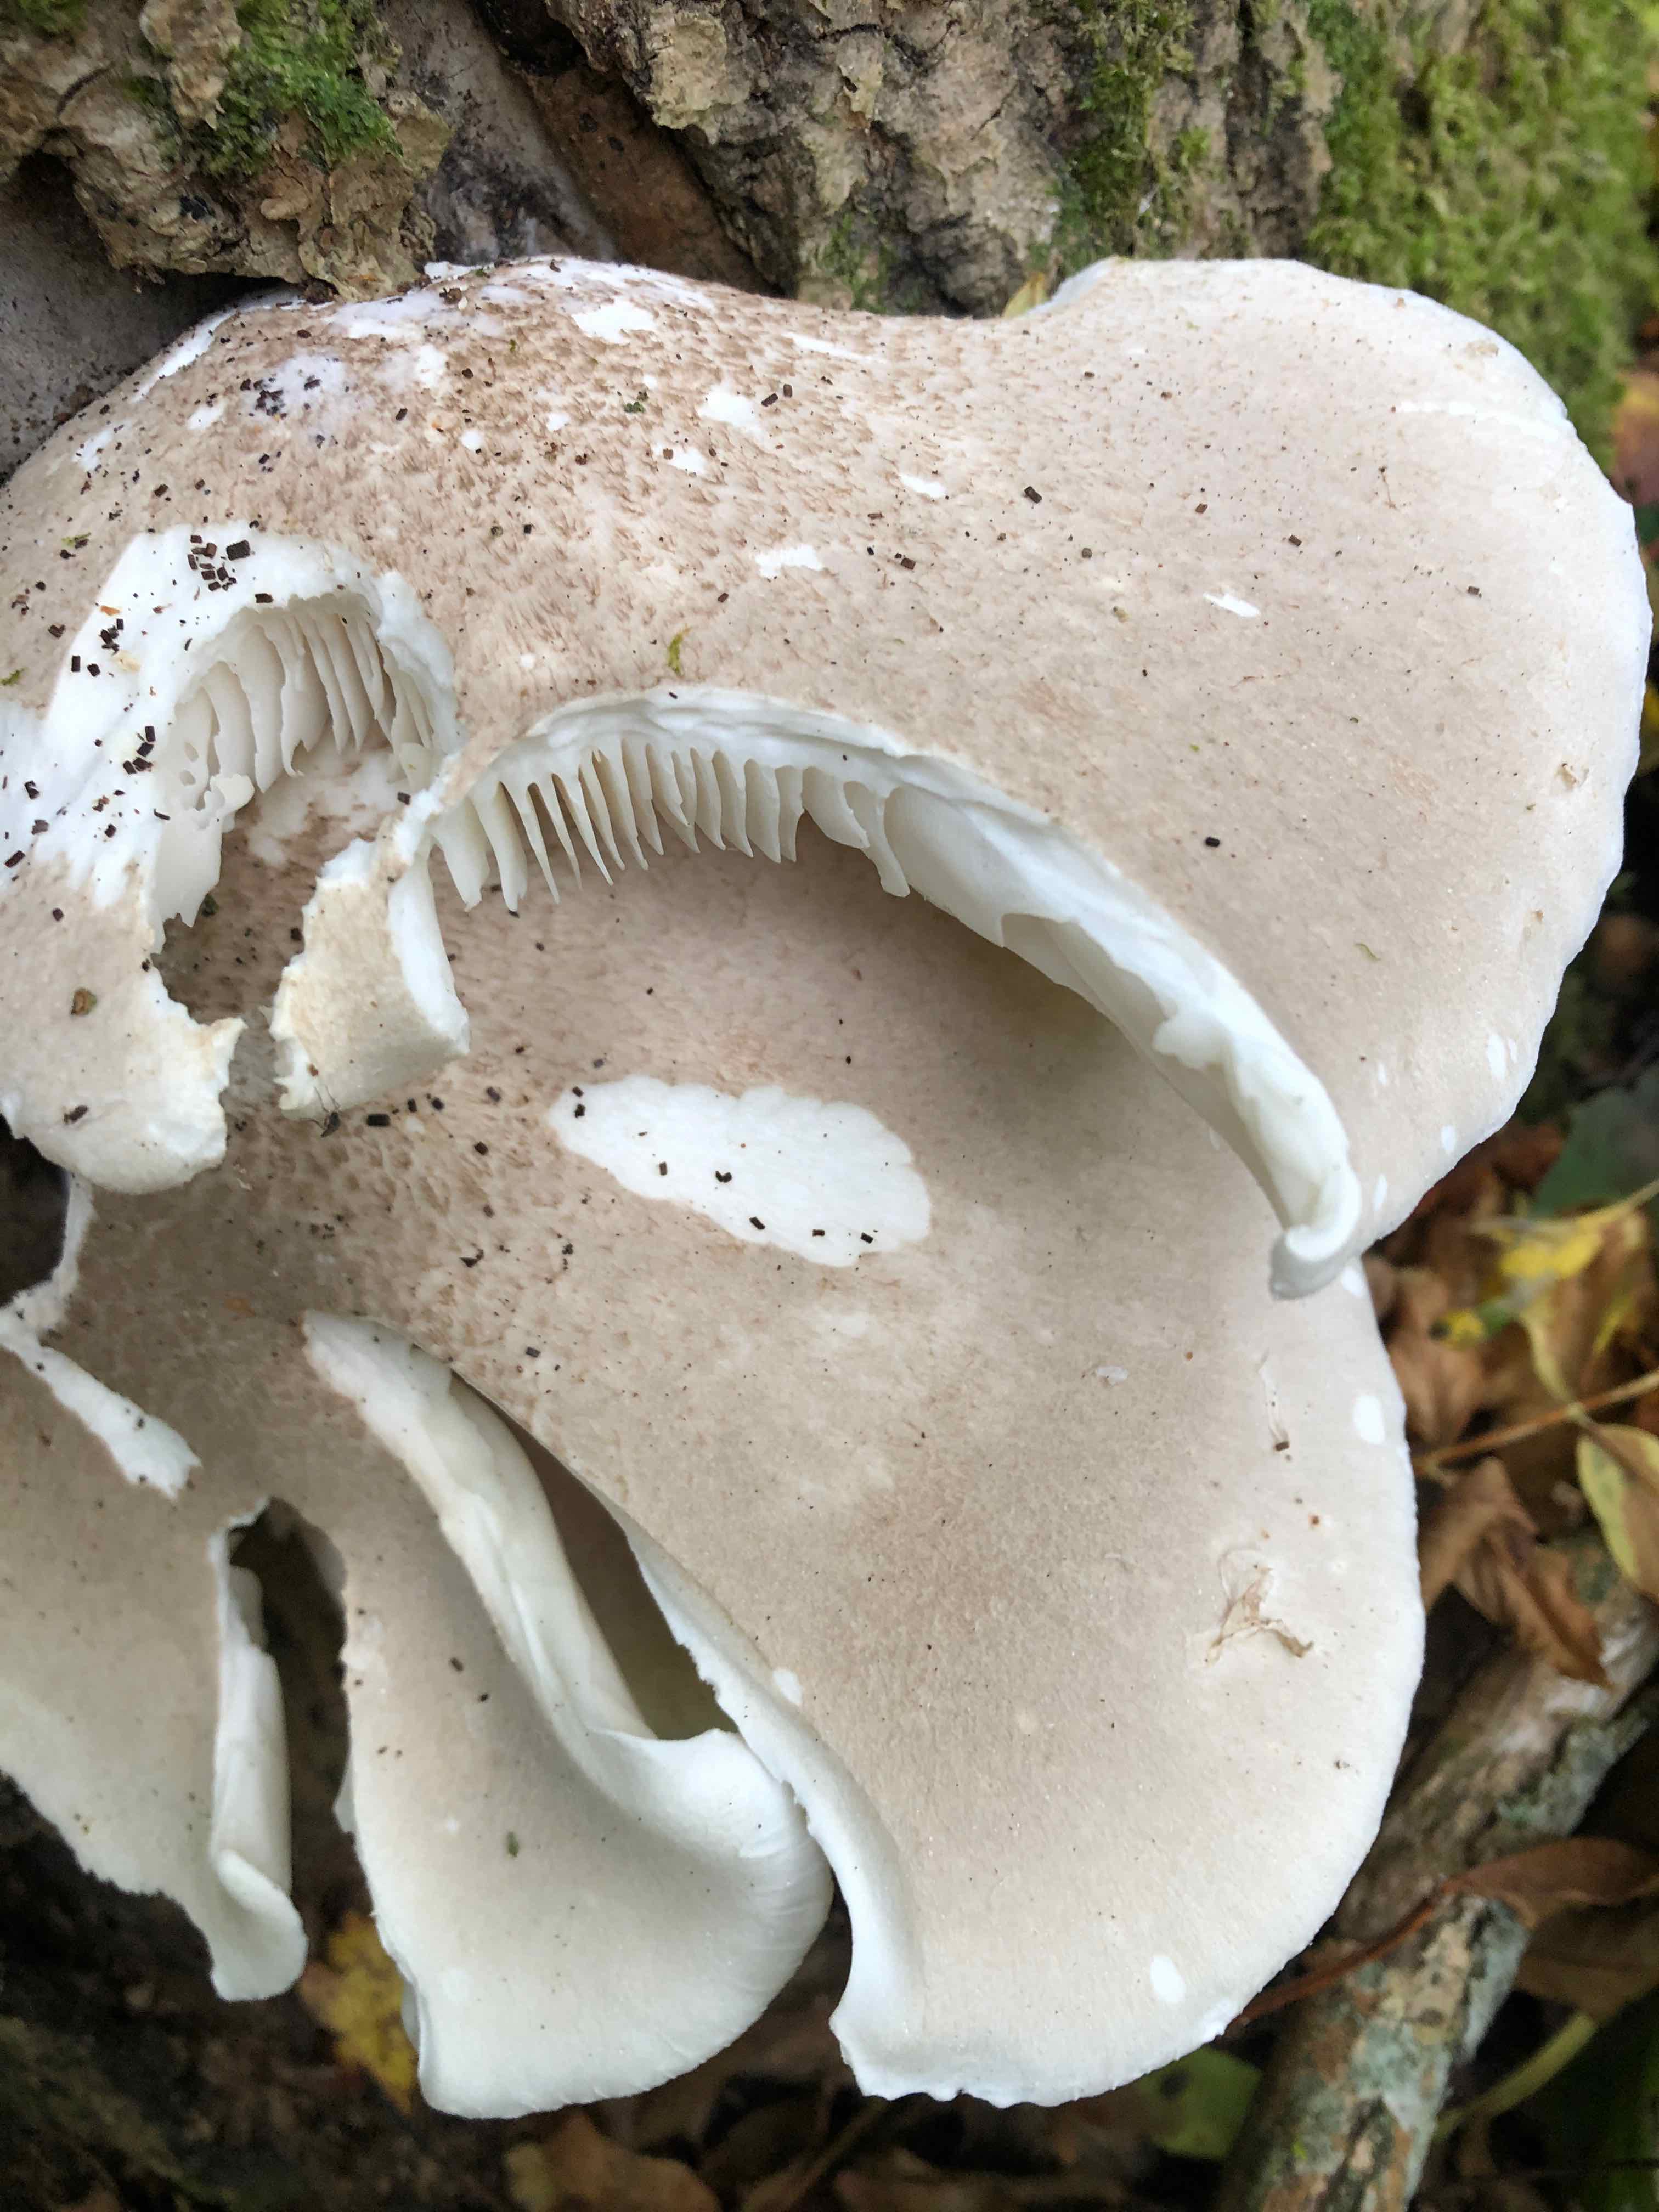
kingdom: Fungi
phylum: Basidiomycota
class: Agaricomycetes
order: Agaricales
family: Pleurotaceae
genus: Pleurotus
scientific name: Pleurotus dryinus
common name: korkagtig østershat
